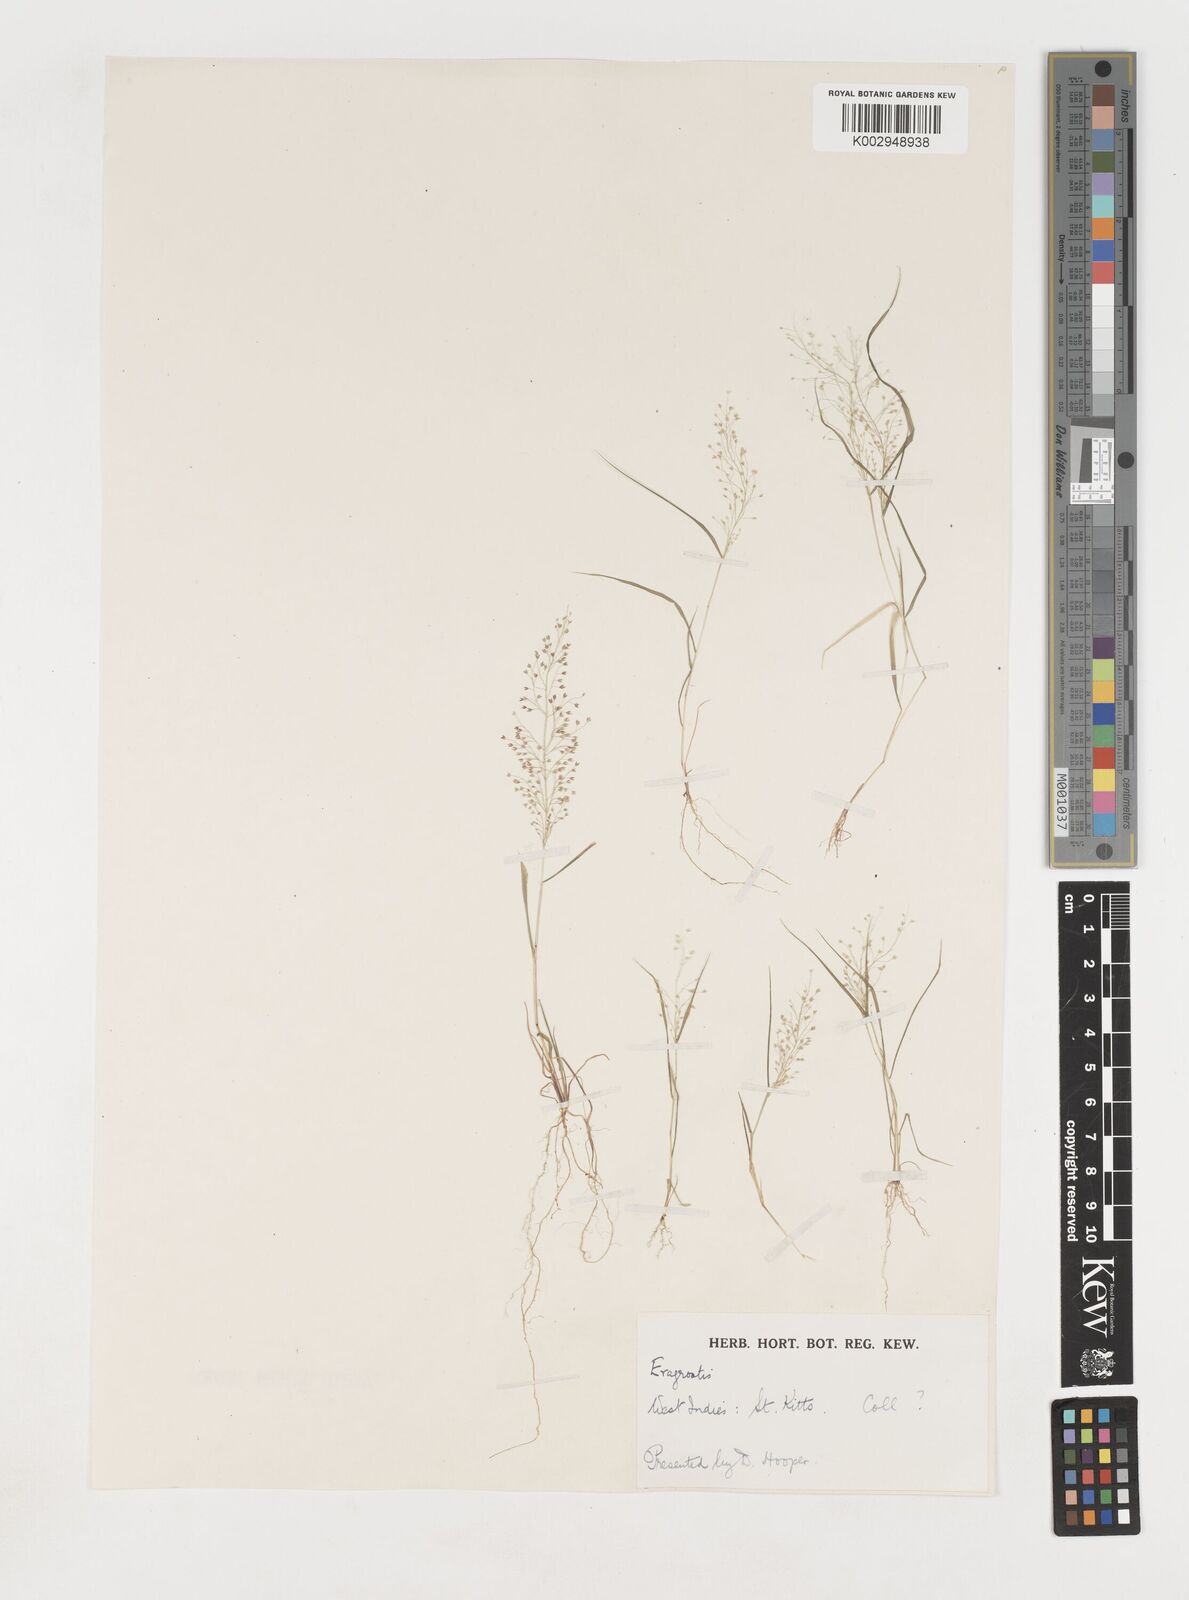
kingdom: Plantae
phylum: Tracheophyta
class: Liliopsida
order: Poales
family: Poaceae
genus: Eragrostis
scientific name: Eragrostis tenella
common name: Japanese lovegrass
